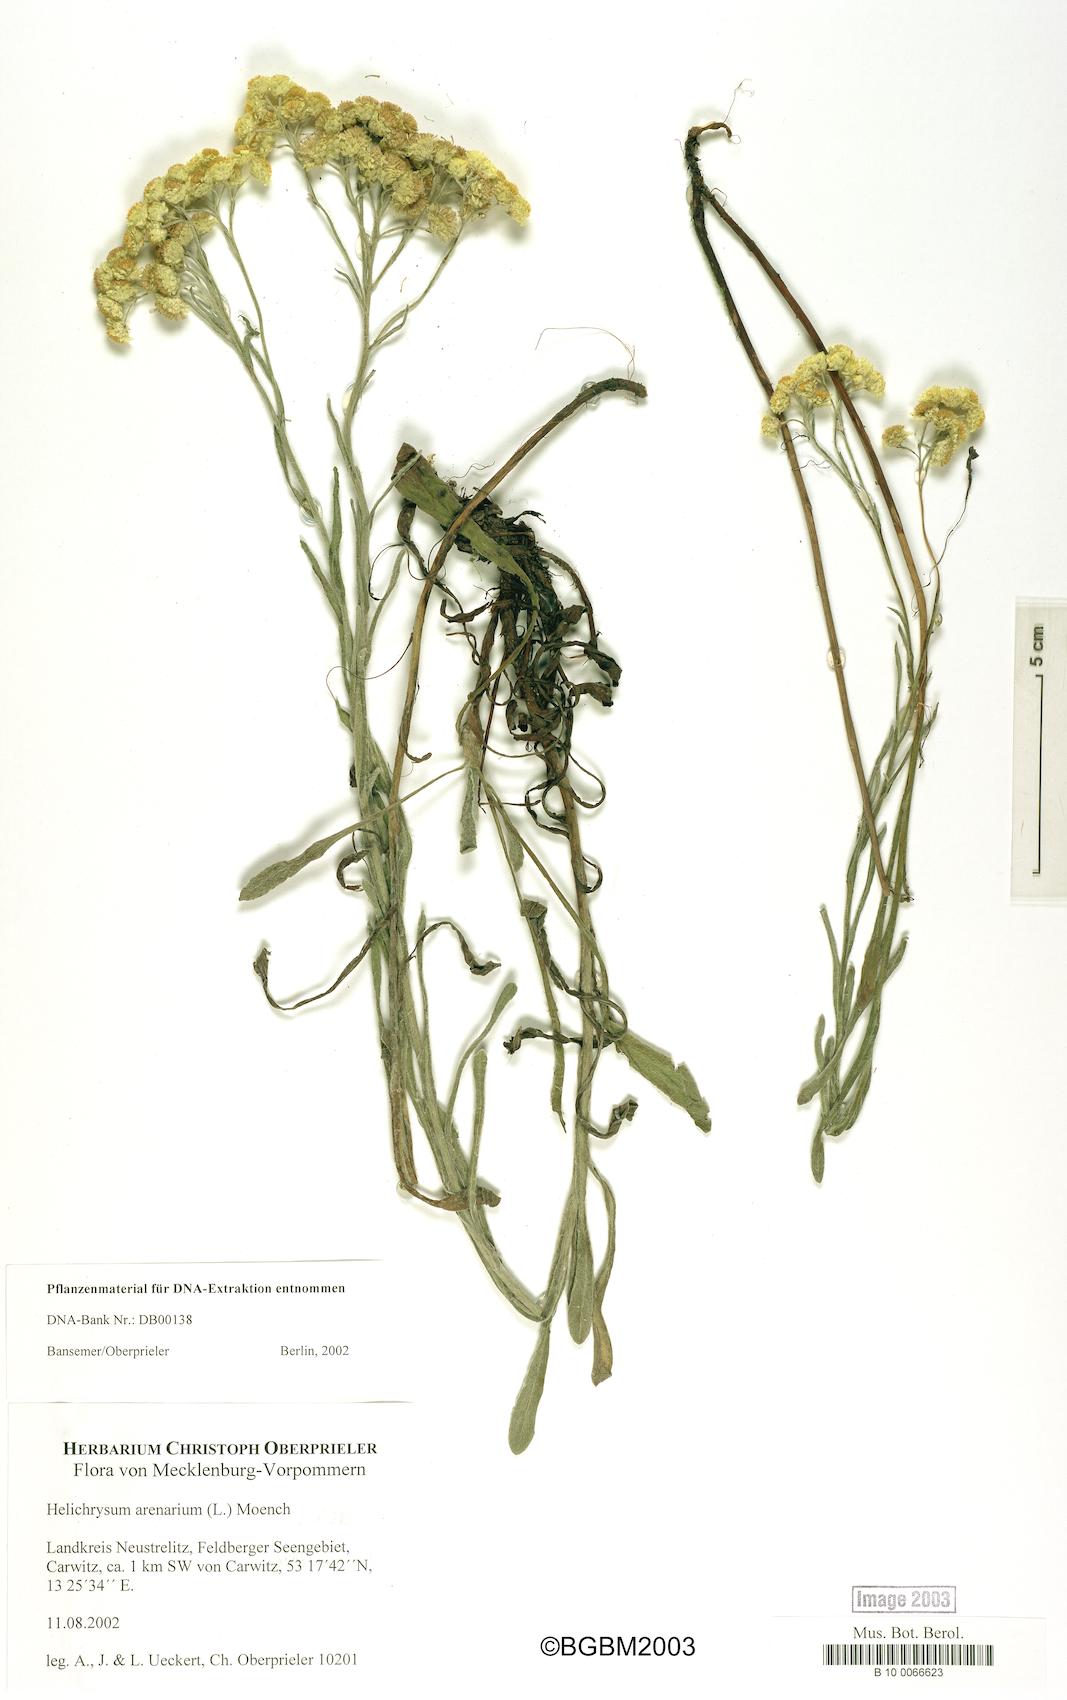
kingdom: Plantae
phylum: Tracheophyta
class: Magnoliopsida
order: Asterales
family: Asteraceae
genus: Helichrysum
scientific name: Helichrysum arenarium
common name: Strawflower
